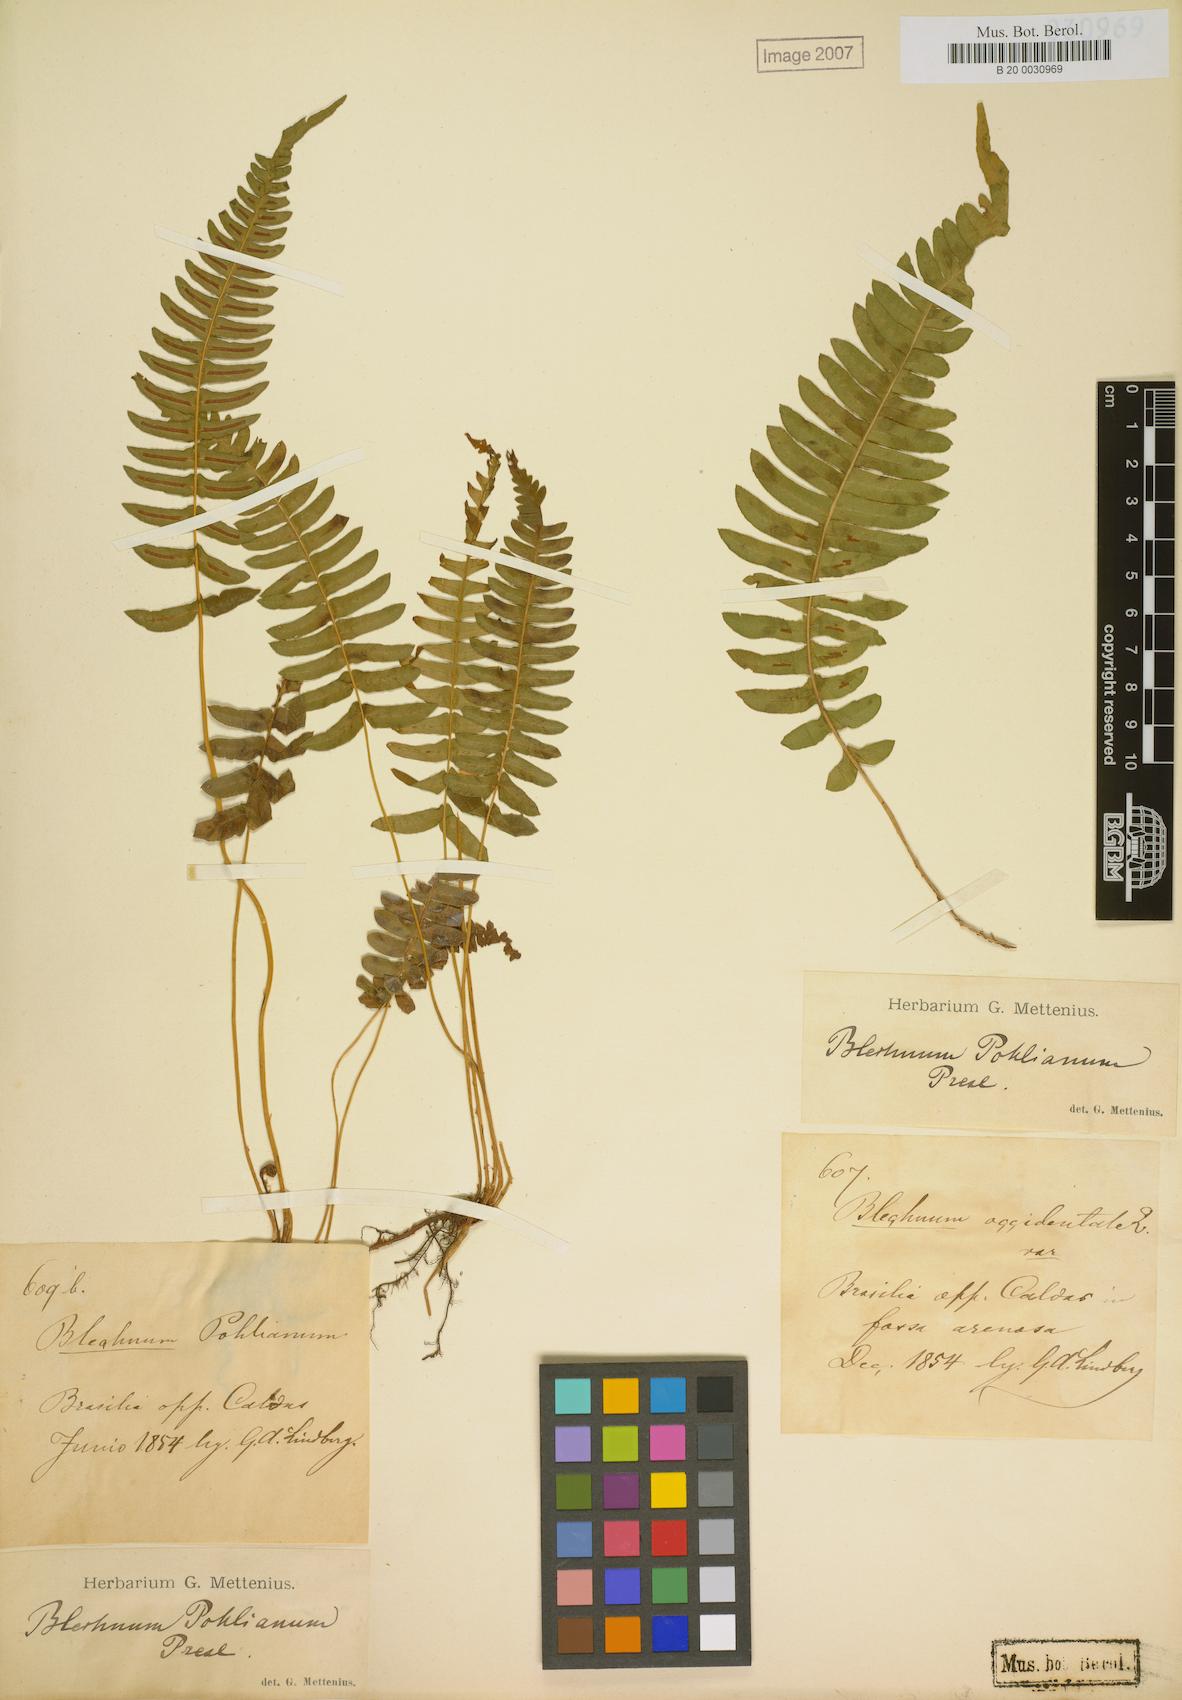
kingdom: Plantae
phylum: Tracheophyta
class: Polypodiopsida
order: Polypodiales
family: Blechnaceae
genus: Blechnum
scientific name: Blechnum laevigatum
